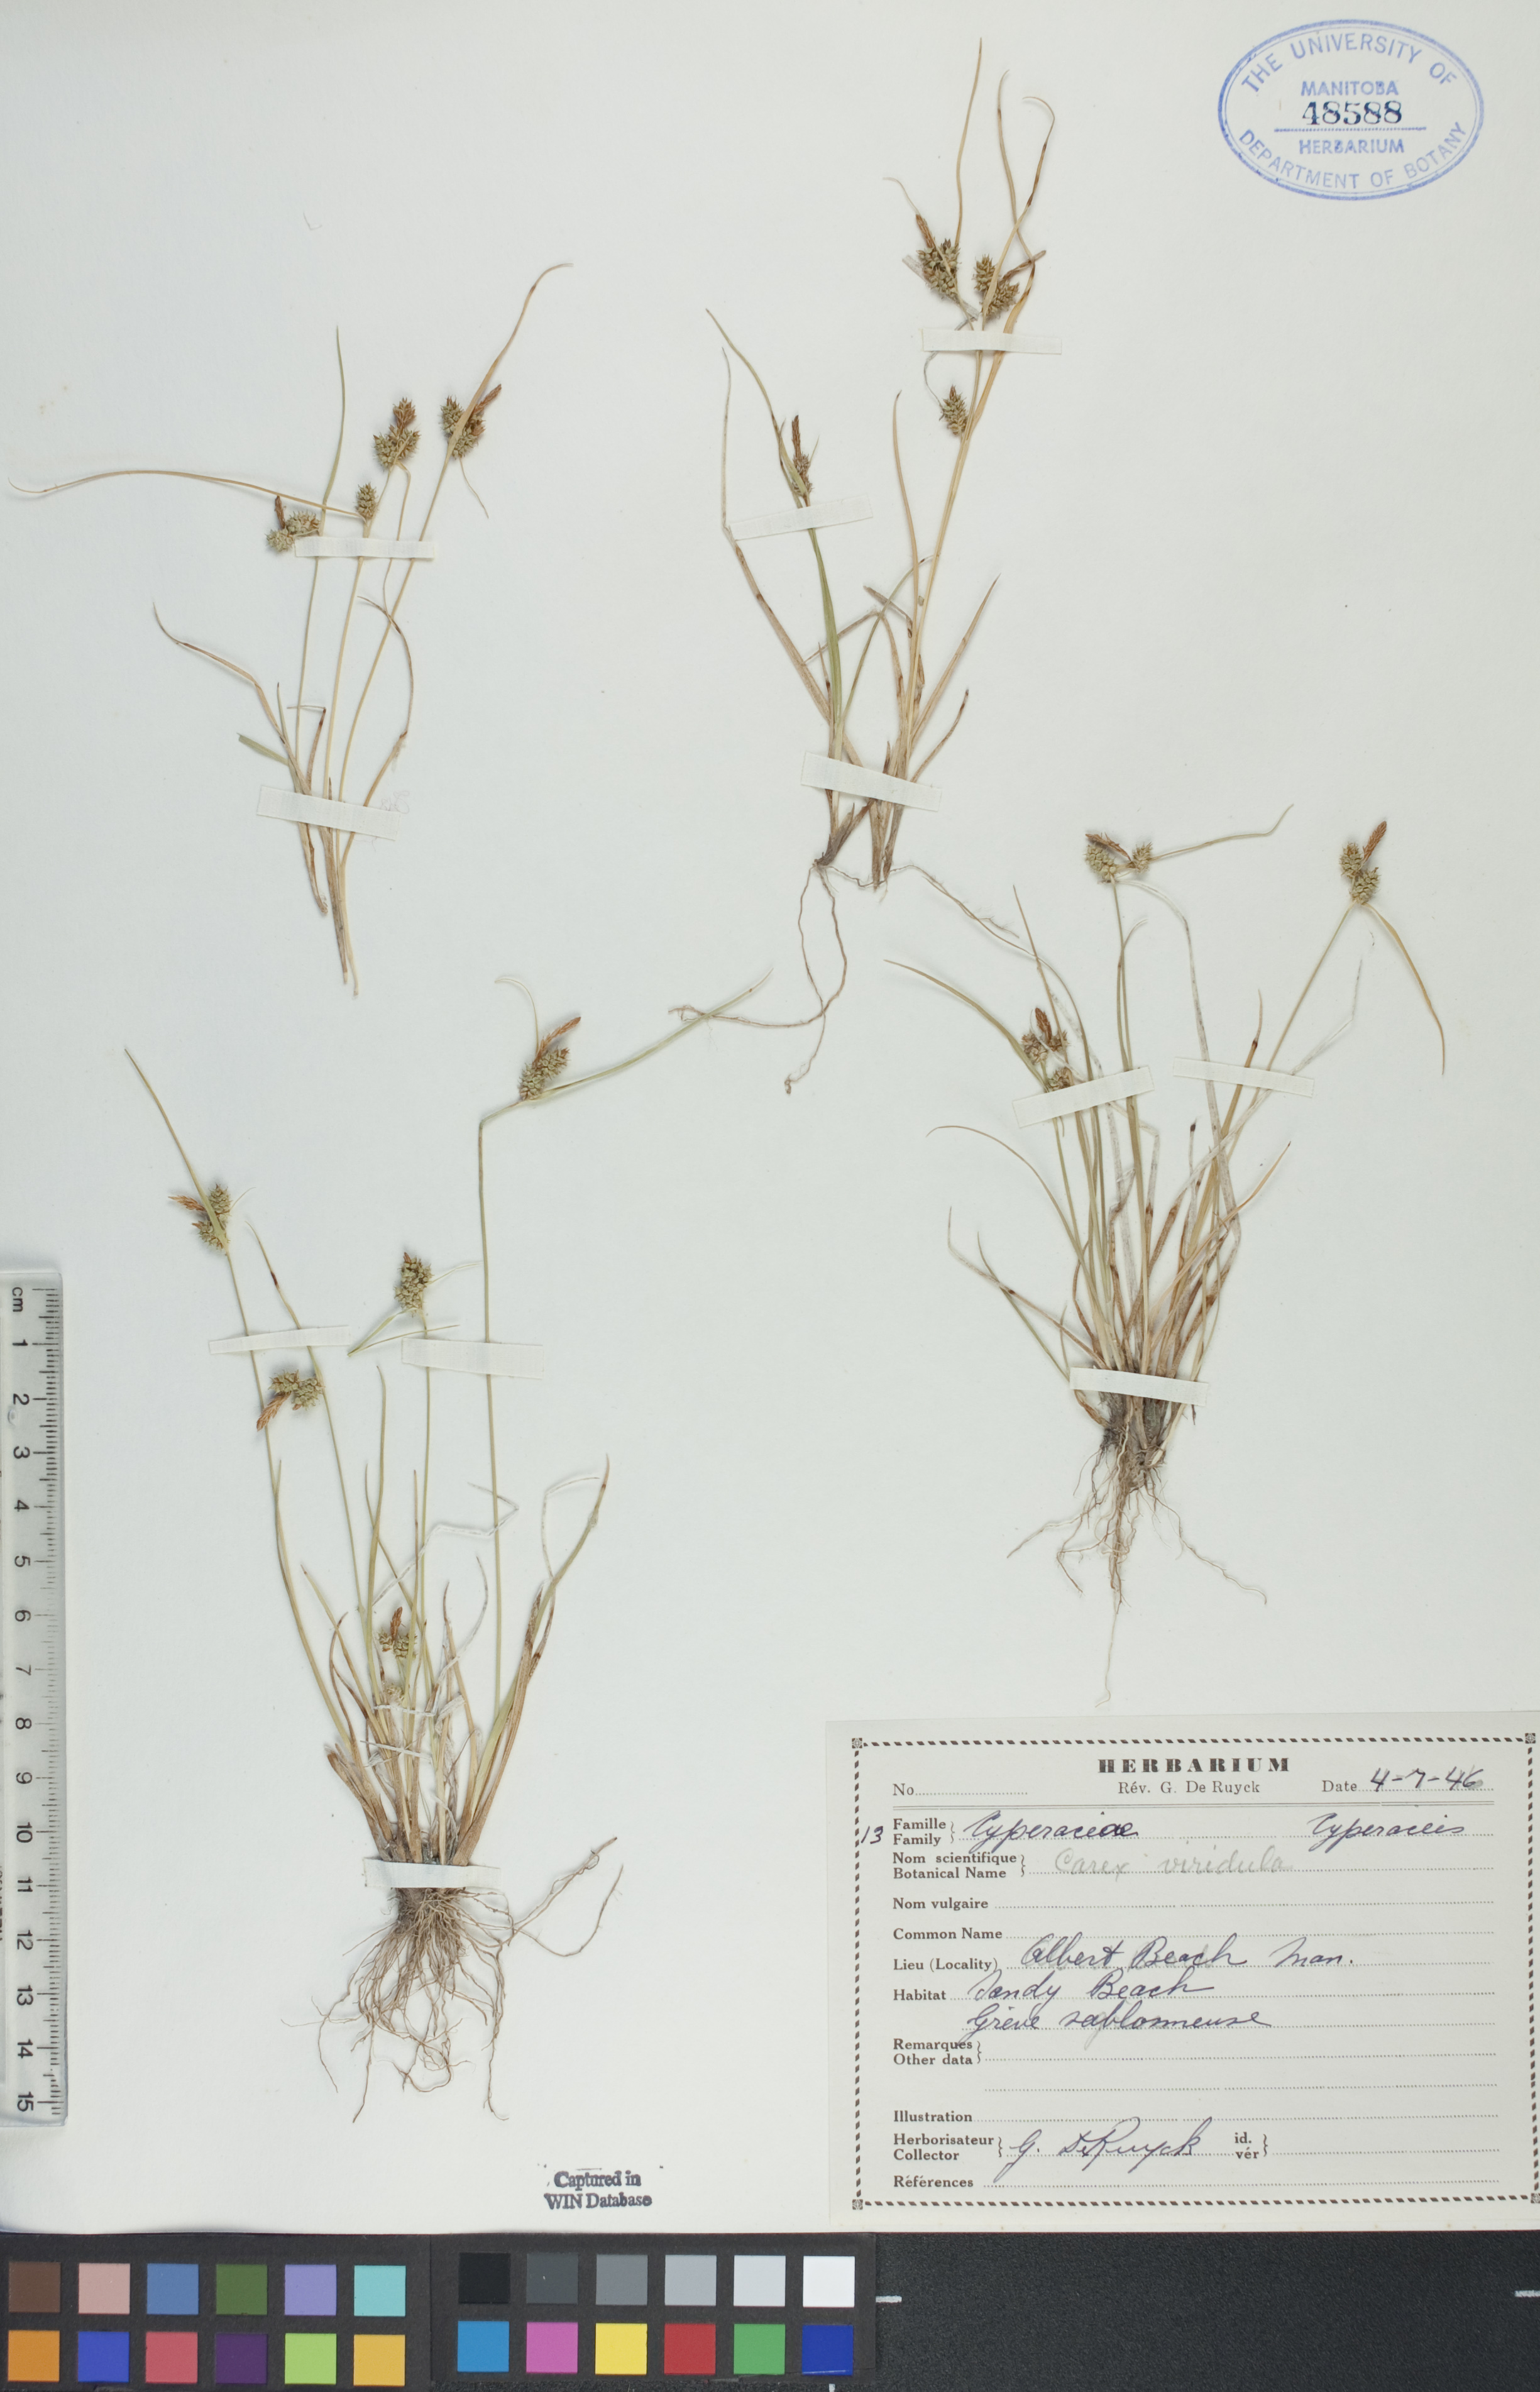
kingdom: Plantae
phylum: Tracheophyta
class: Liliopsida
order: Poales
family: Cyperaceae
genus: Carex
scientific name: Carex oederi
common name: Common & small-fruited yellow-sedge
